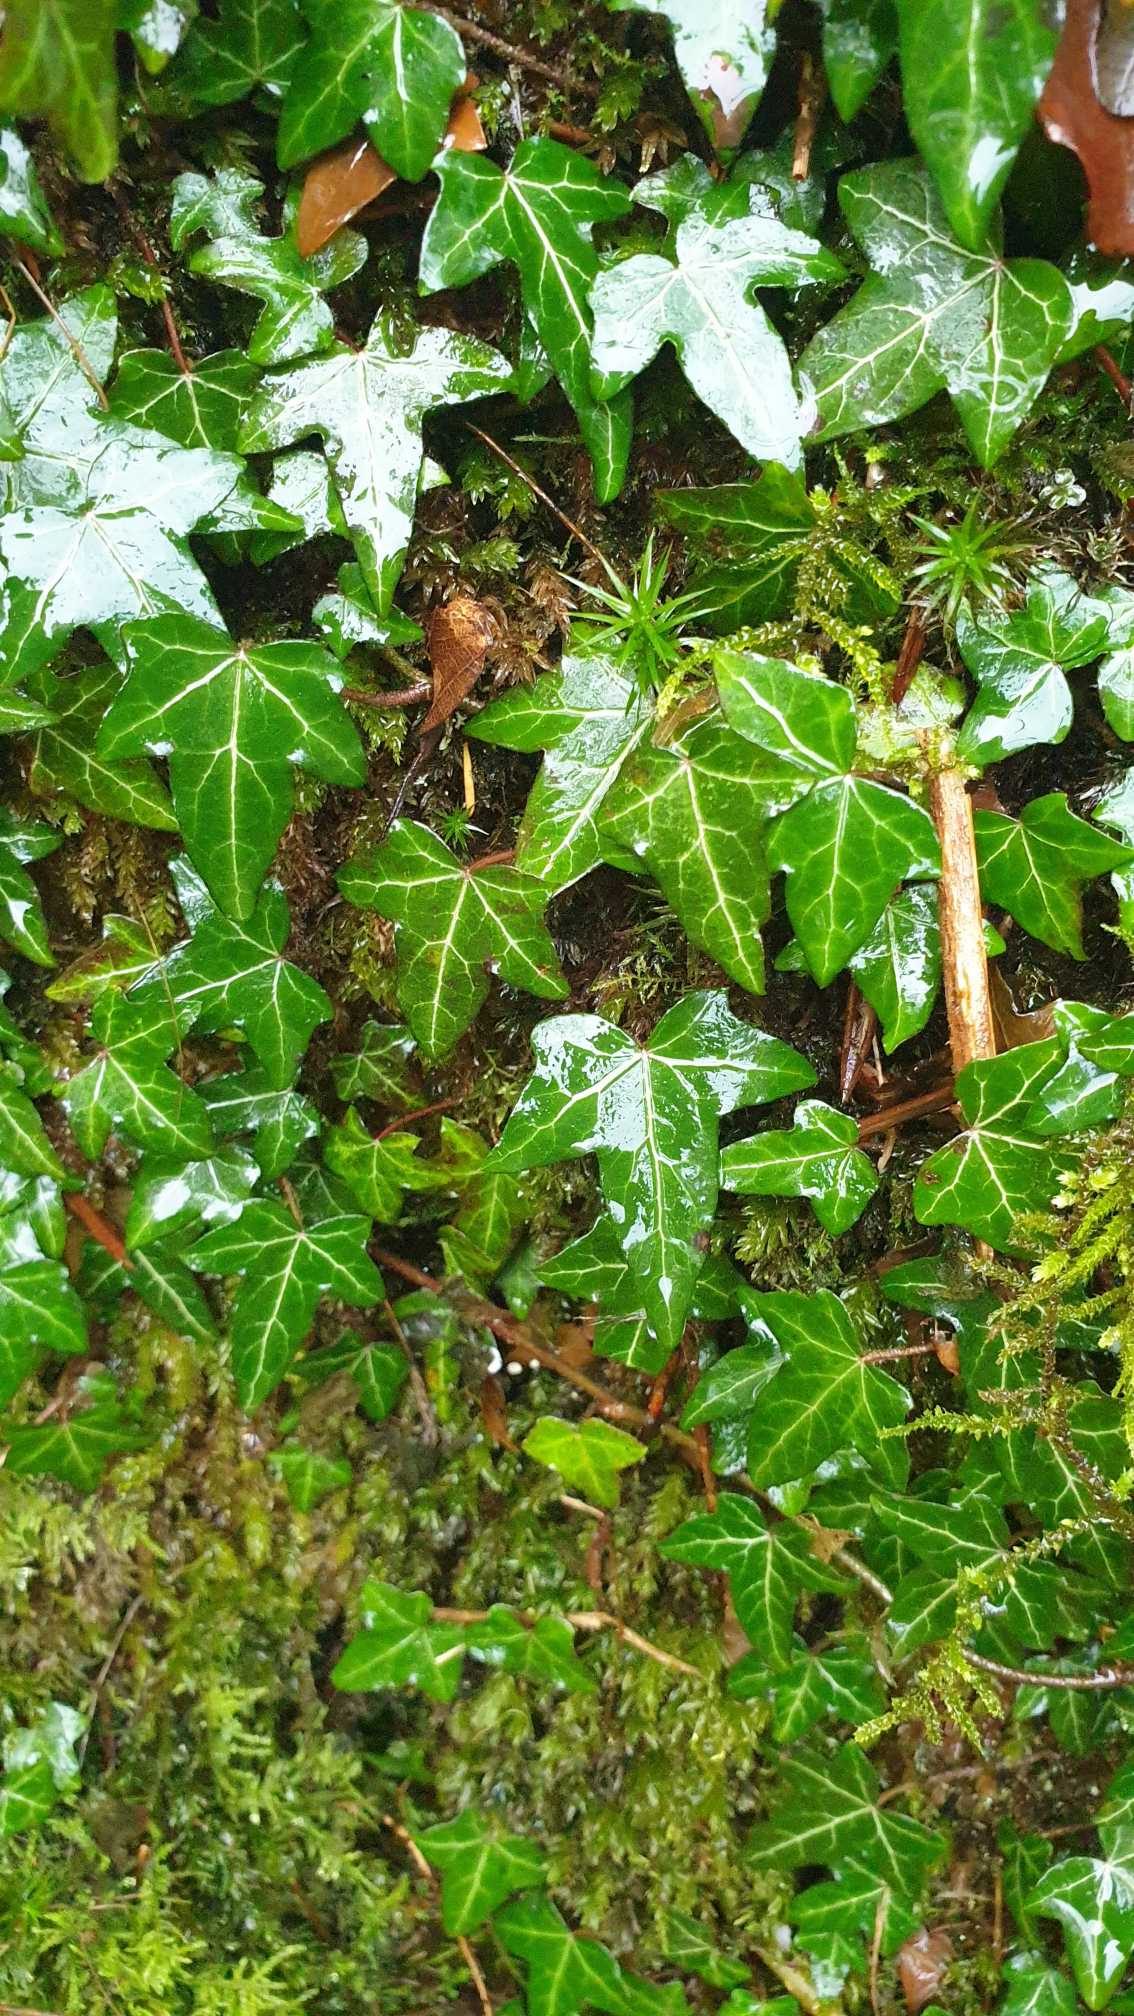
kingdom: Plantae
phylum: Tracheophyta
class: Magnoliopsida
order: Apiales
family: Araliaceae
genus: Hedera
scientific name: Hedera helix
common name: Vedbend
